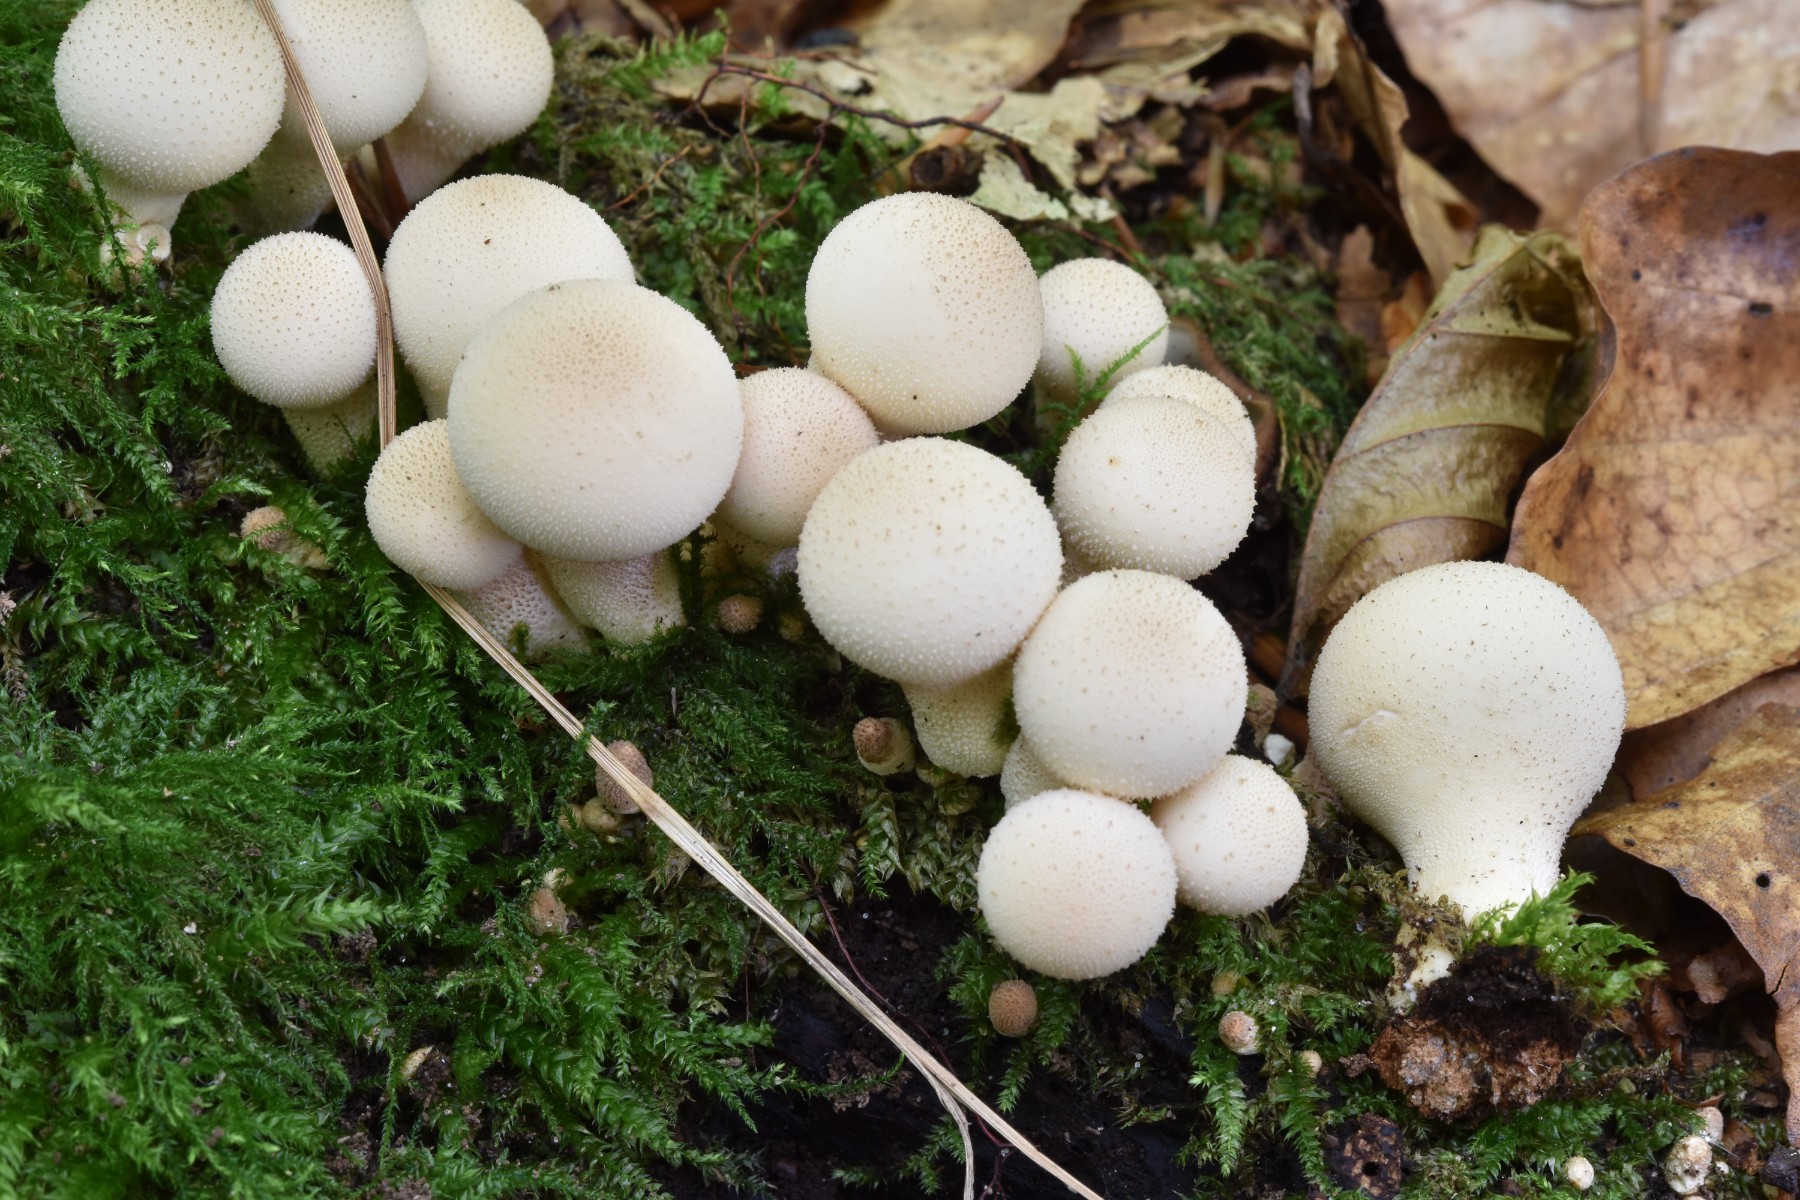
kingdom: Fungi
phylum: Basidiomycota
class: Agaricomycetes
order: Agaricales
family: Lycoperdaceae
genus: Apioperdon
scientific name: Apioperdon pyriforme
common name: pære-støvbold
